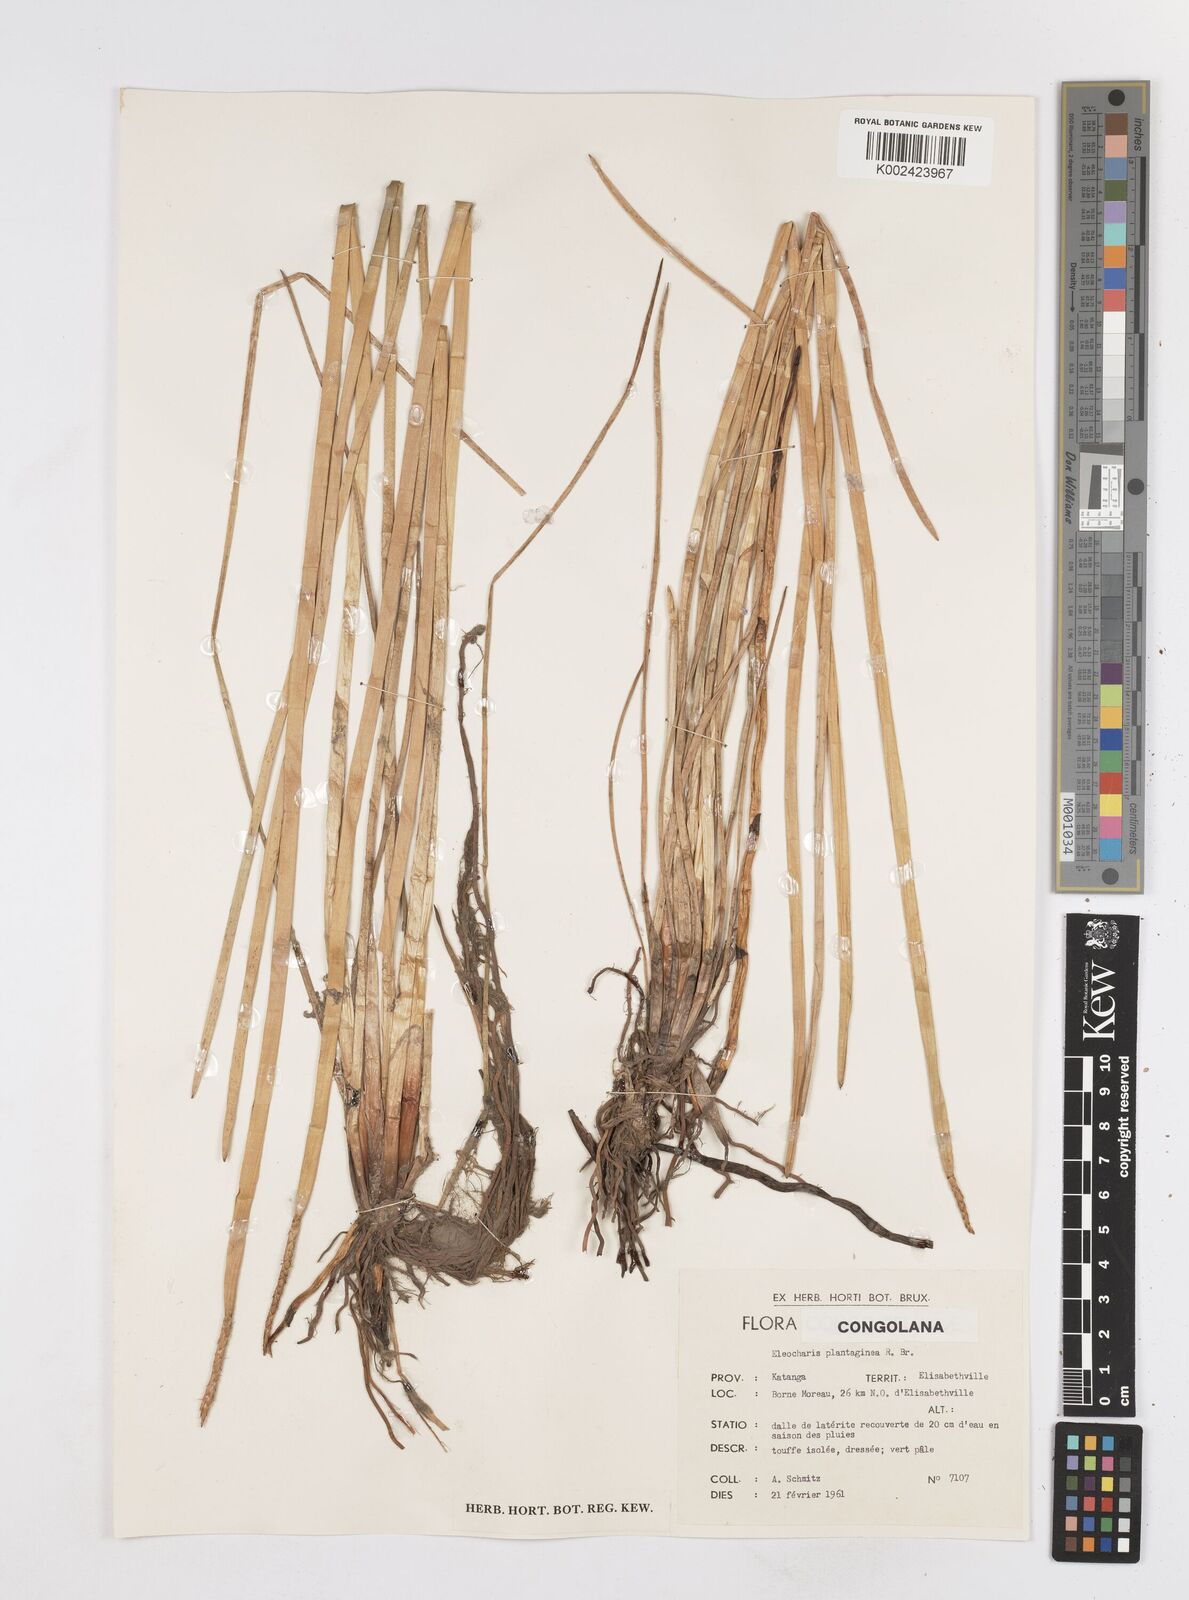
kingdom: Plantae
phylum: Tracheophyta
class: Liliopsida
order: Poales
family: Cyperaceae
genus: Eleocharis
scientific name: Eleocharis dulcis
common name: Chinese water chestnut
